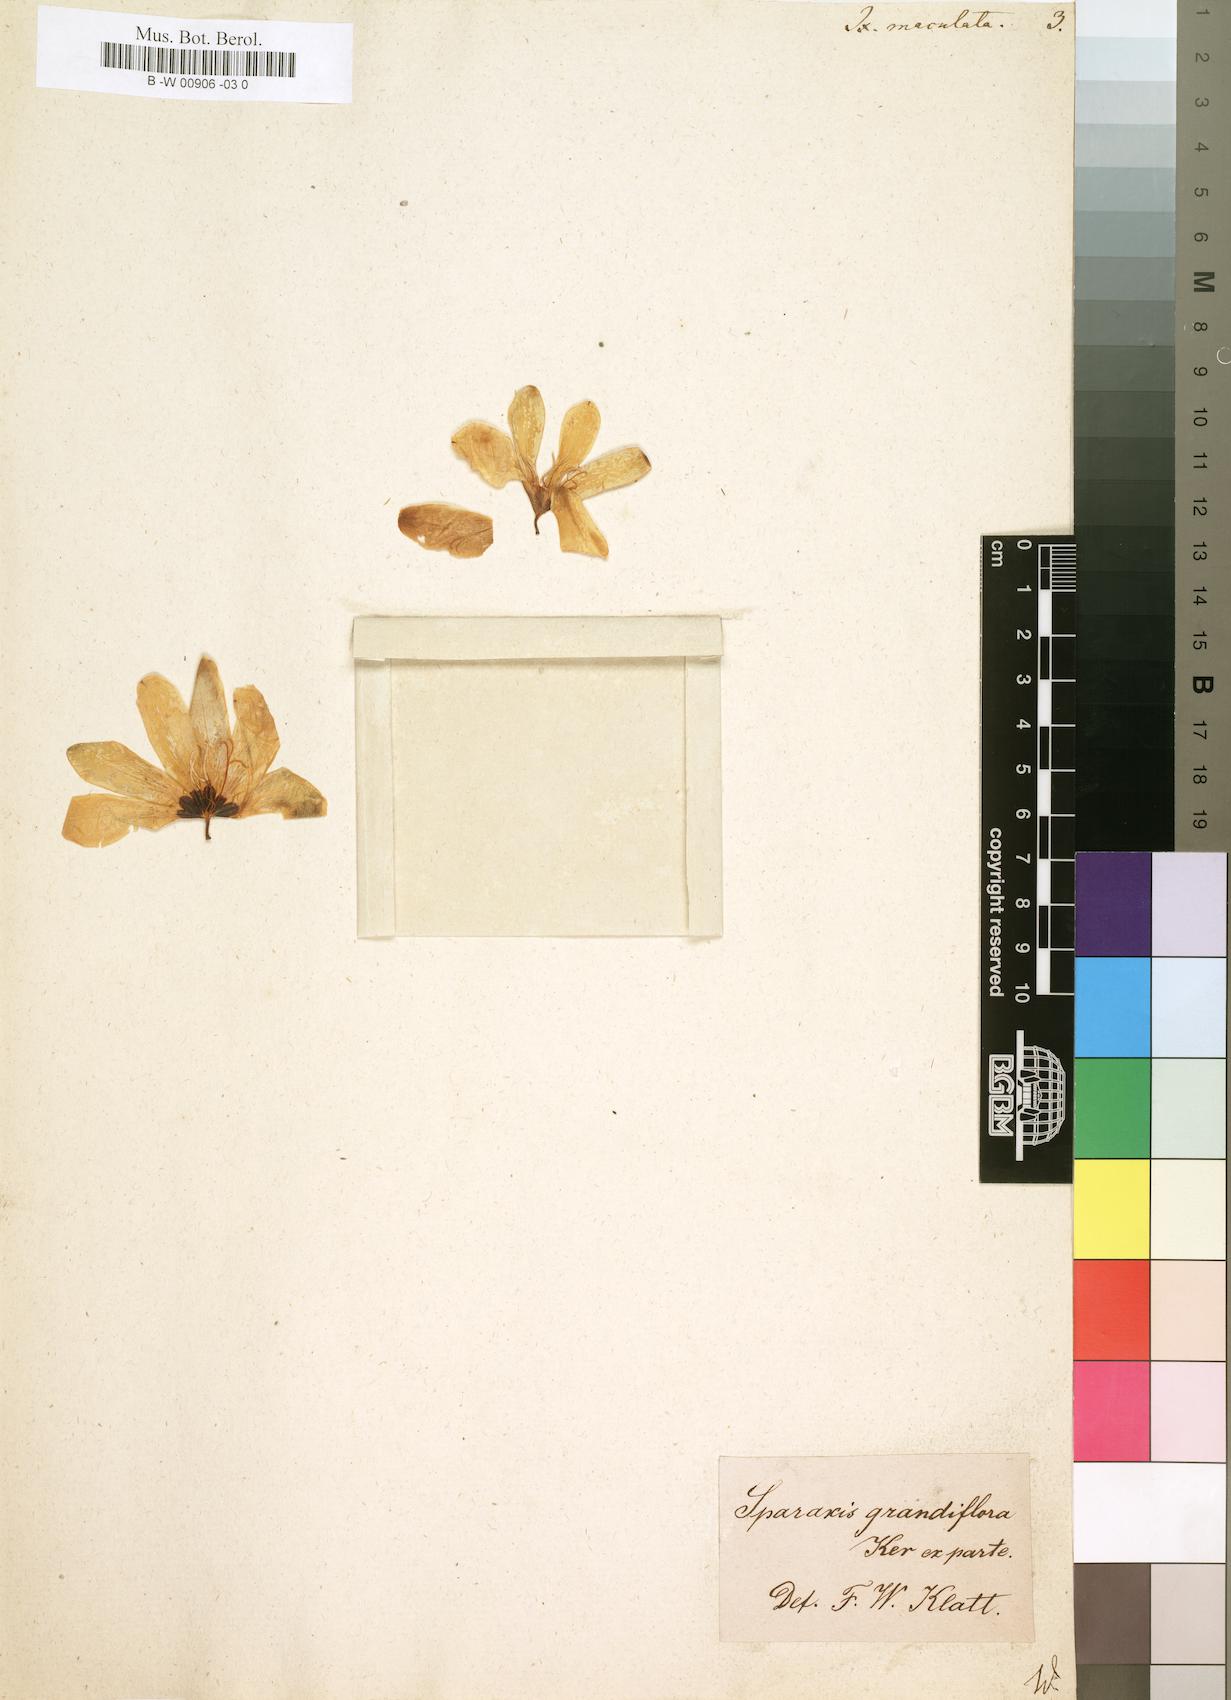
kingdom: Plantae
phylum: Tracheophyta
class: Liliopsida
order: Asparagales
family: Iridaceae
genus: Ixia
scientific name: Ixia maculata
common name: Spotted african cornlily
